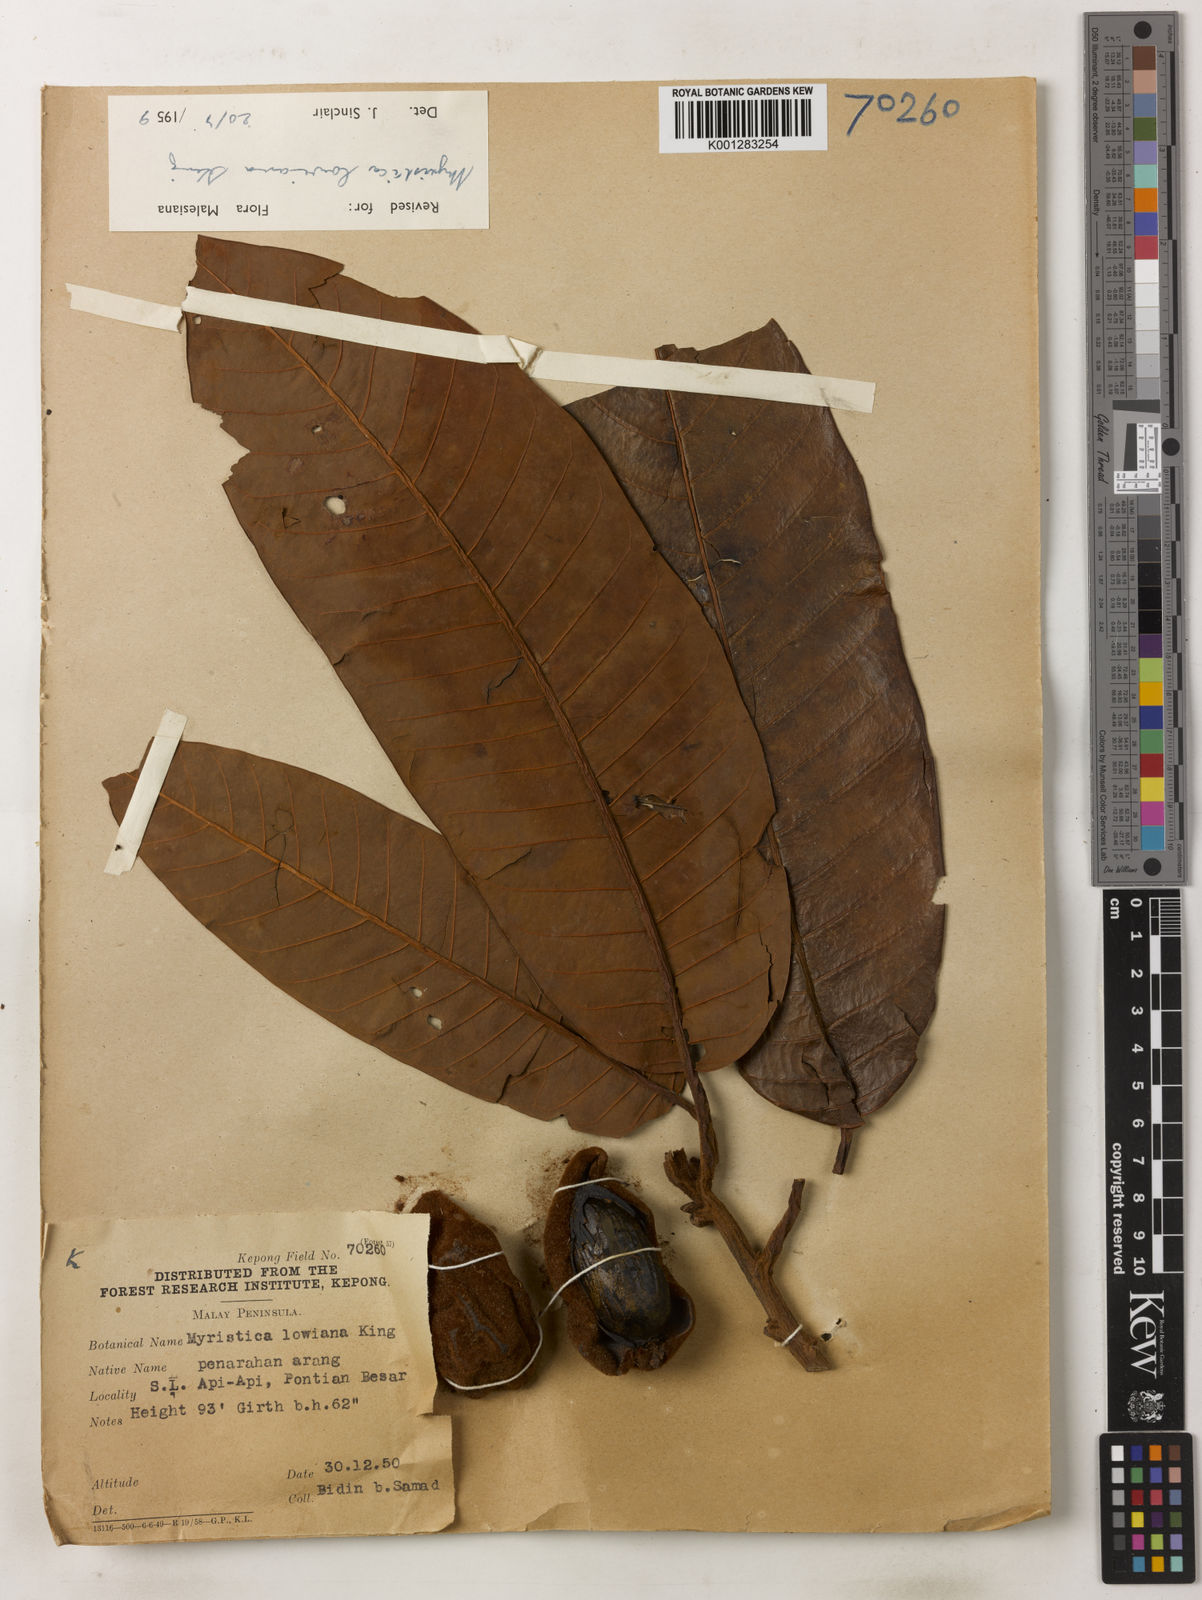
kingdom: Plantae
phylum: Tracheophyta
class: Magnoliopsida
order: Magnoliales
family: Myristicaceae
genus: Myristica
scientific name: Myristica lowiana
